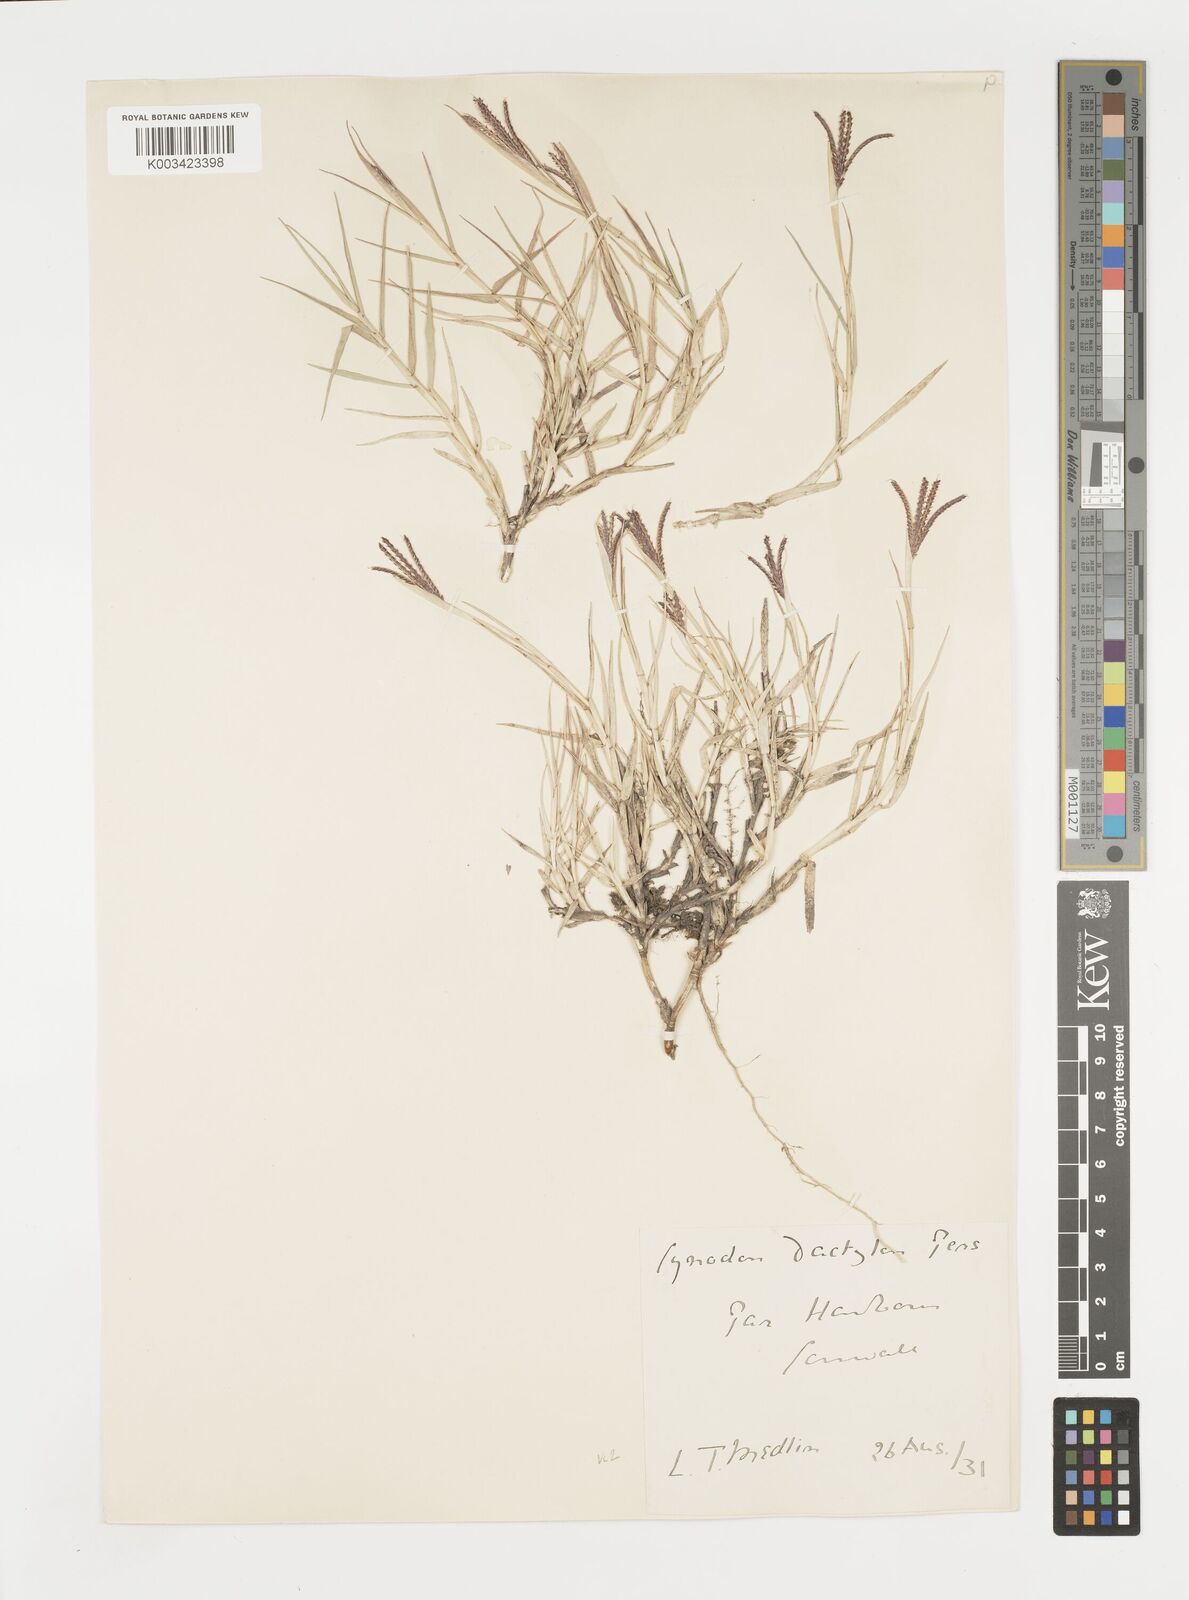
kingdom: Plantae
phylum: Tracheophyta
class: Liliopsida
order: Poales
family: Poaceae
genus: Cynodon
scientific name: Cynodon dactylon
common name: Bermuda grass
